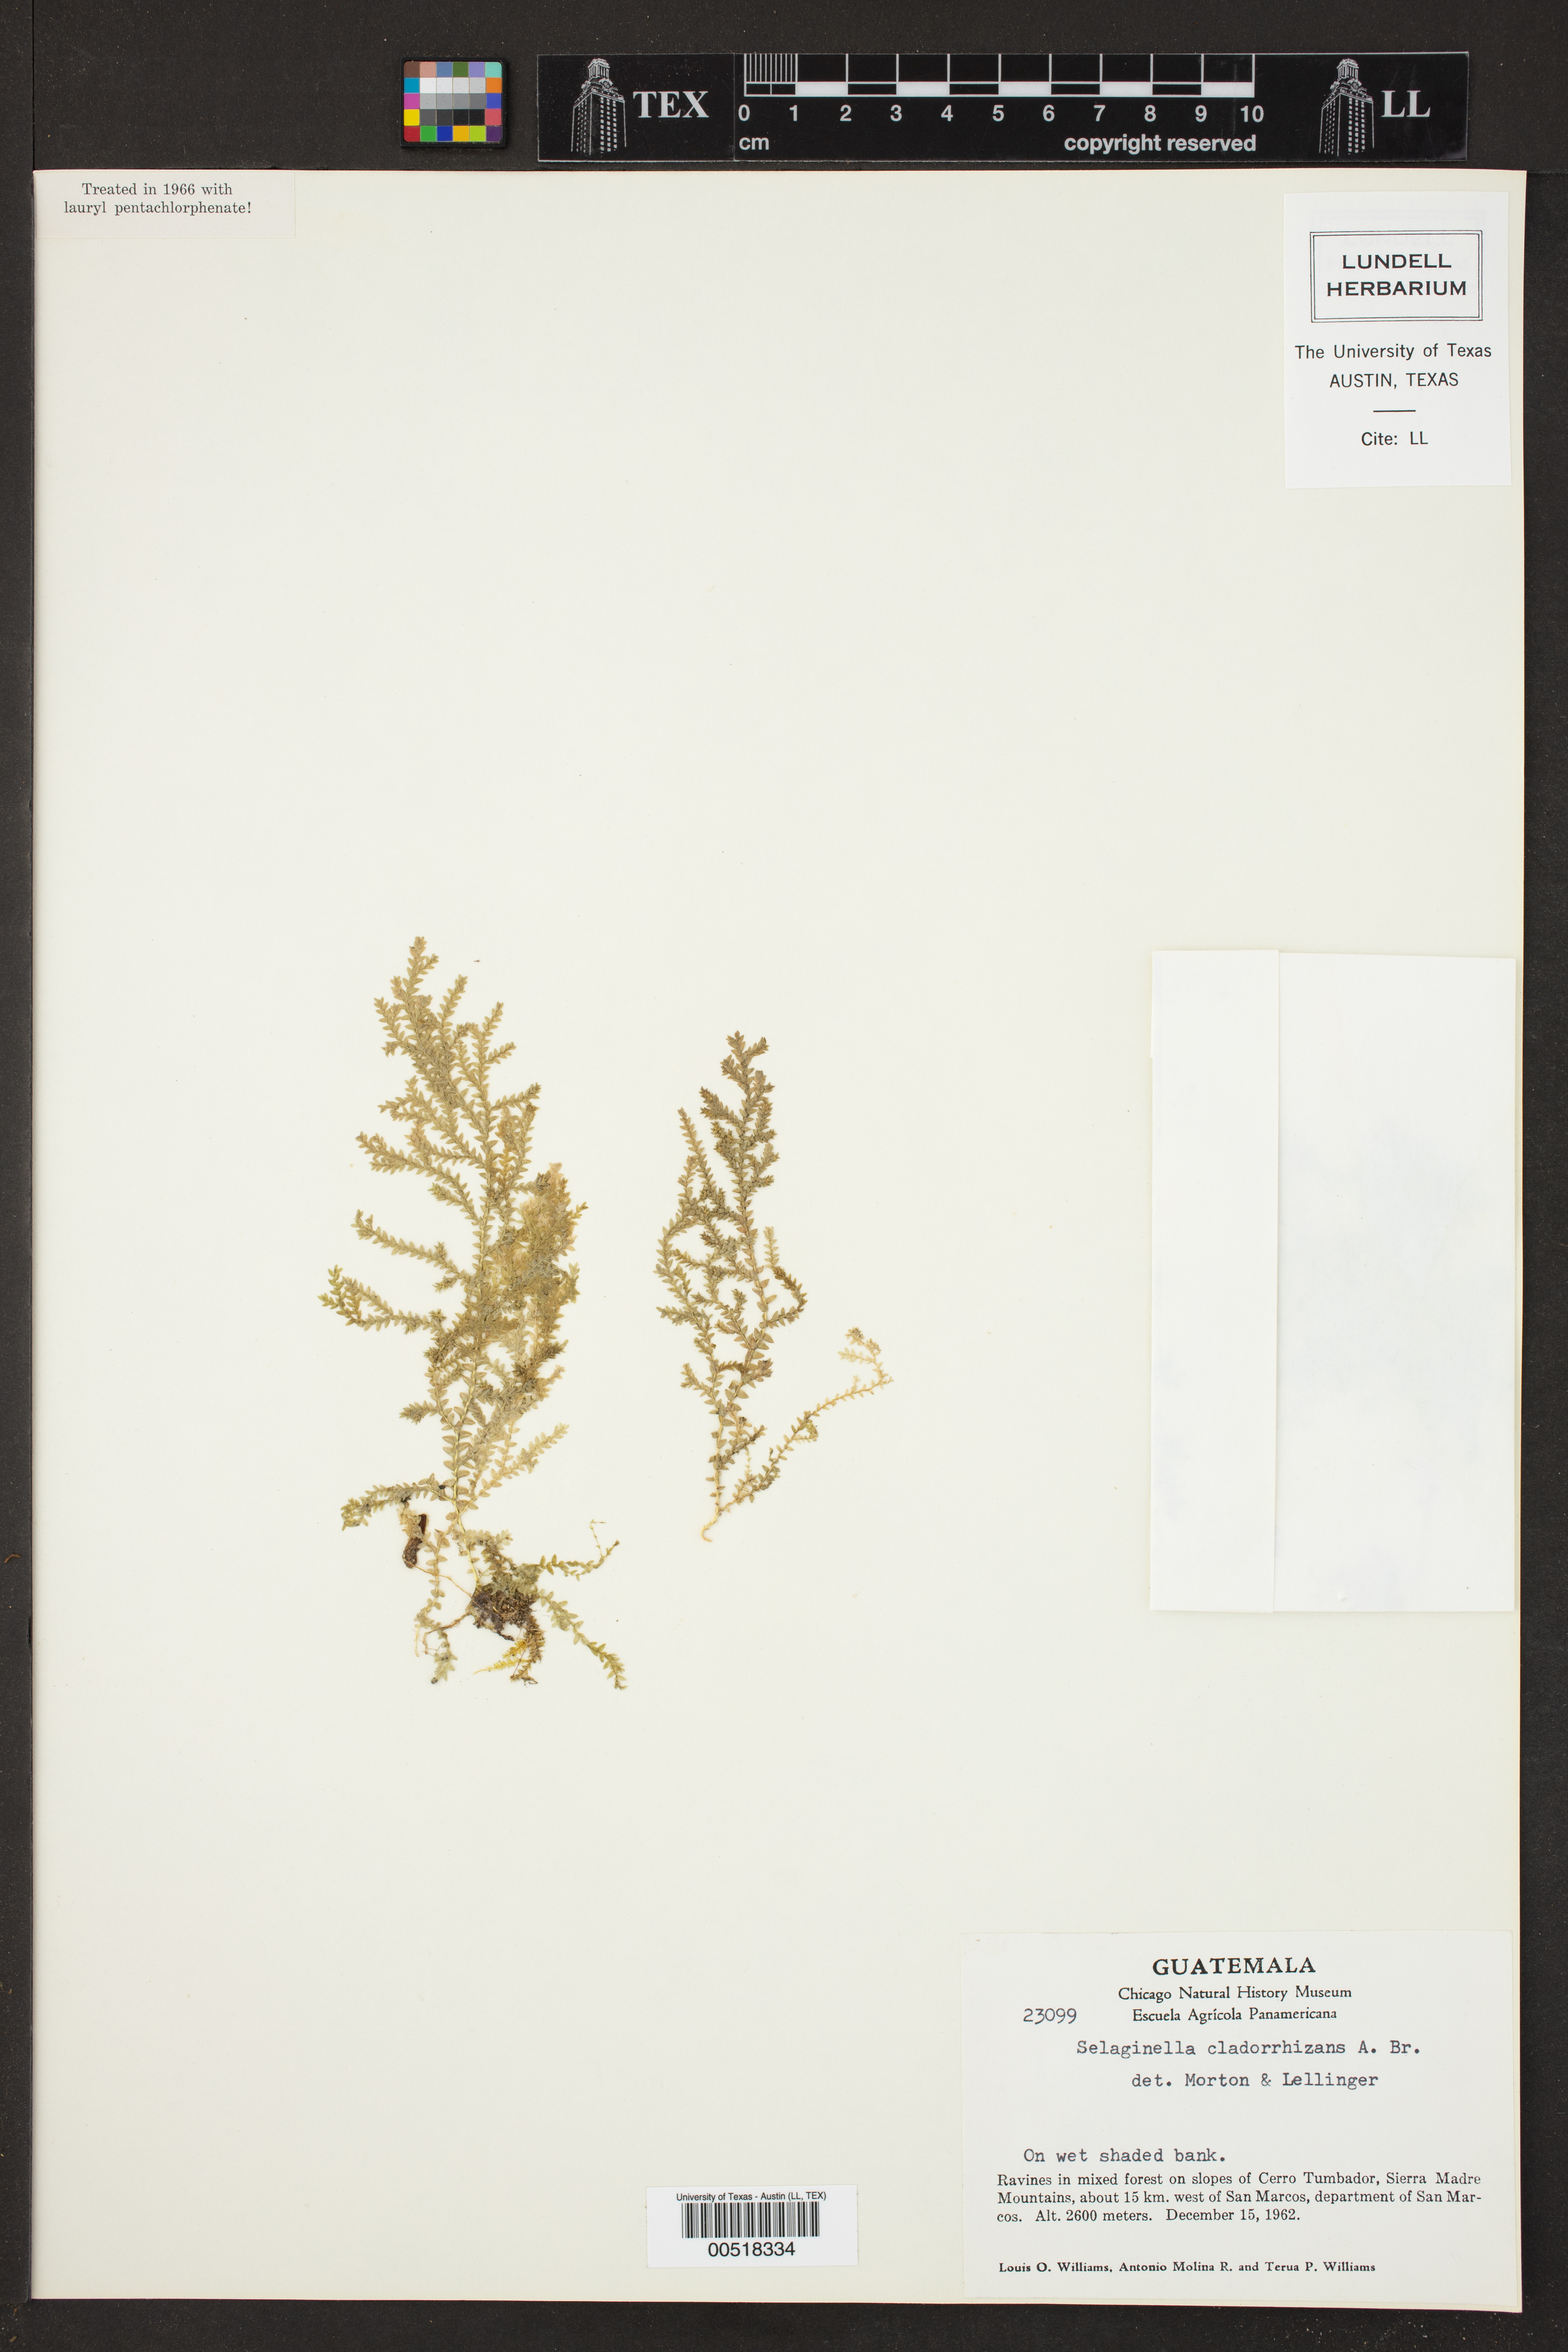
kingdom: Plantae
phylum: Tracheophyta
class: Lycopodiopsida
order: Selaginellales
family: Selaginellaceae
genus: Selaginella
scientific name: Selaginella tenella
